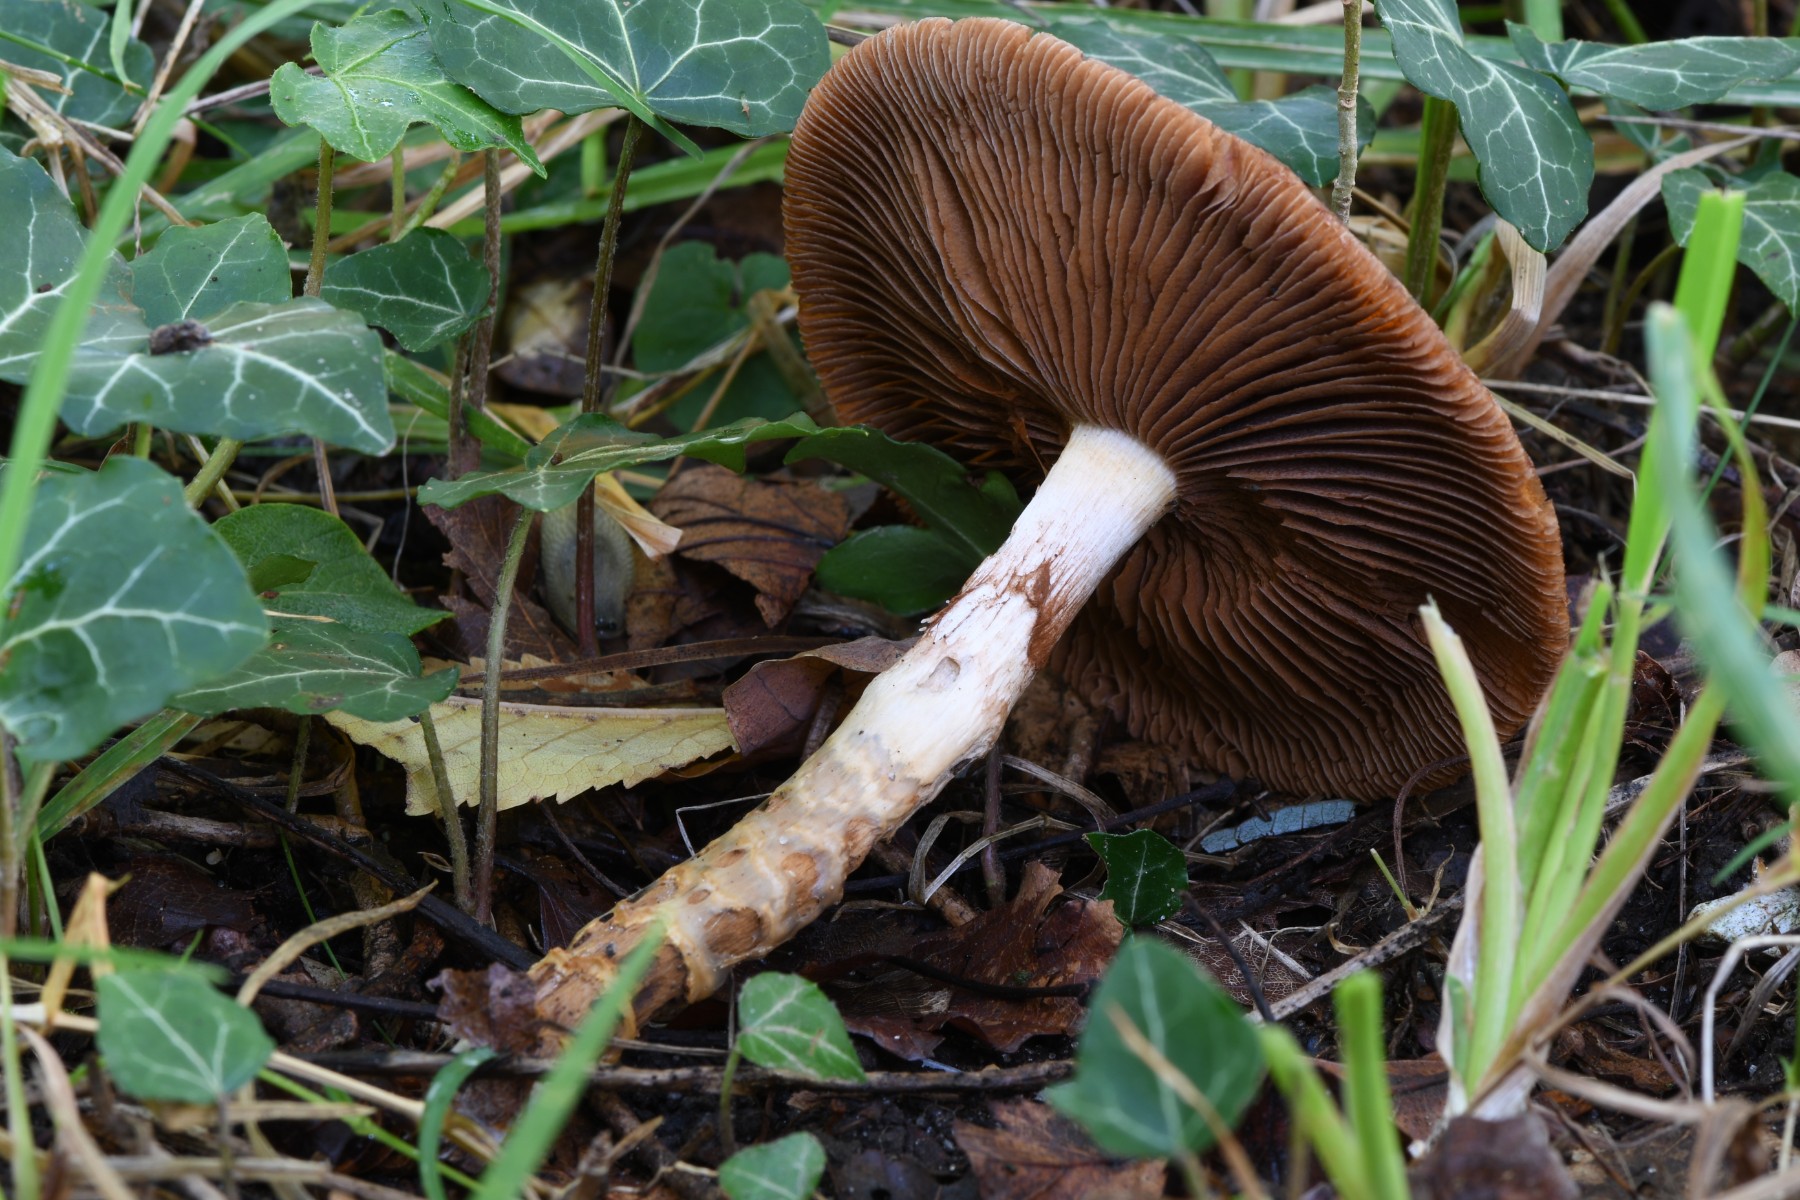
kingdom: Fungi
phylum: Basidiomycota
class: Agaricomycetes
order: Agaricales
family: Cortinariaceae
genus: Cortinarius
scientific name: Cortinarius trivialis
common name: brunslimet slørhat
